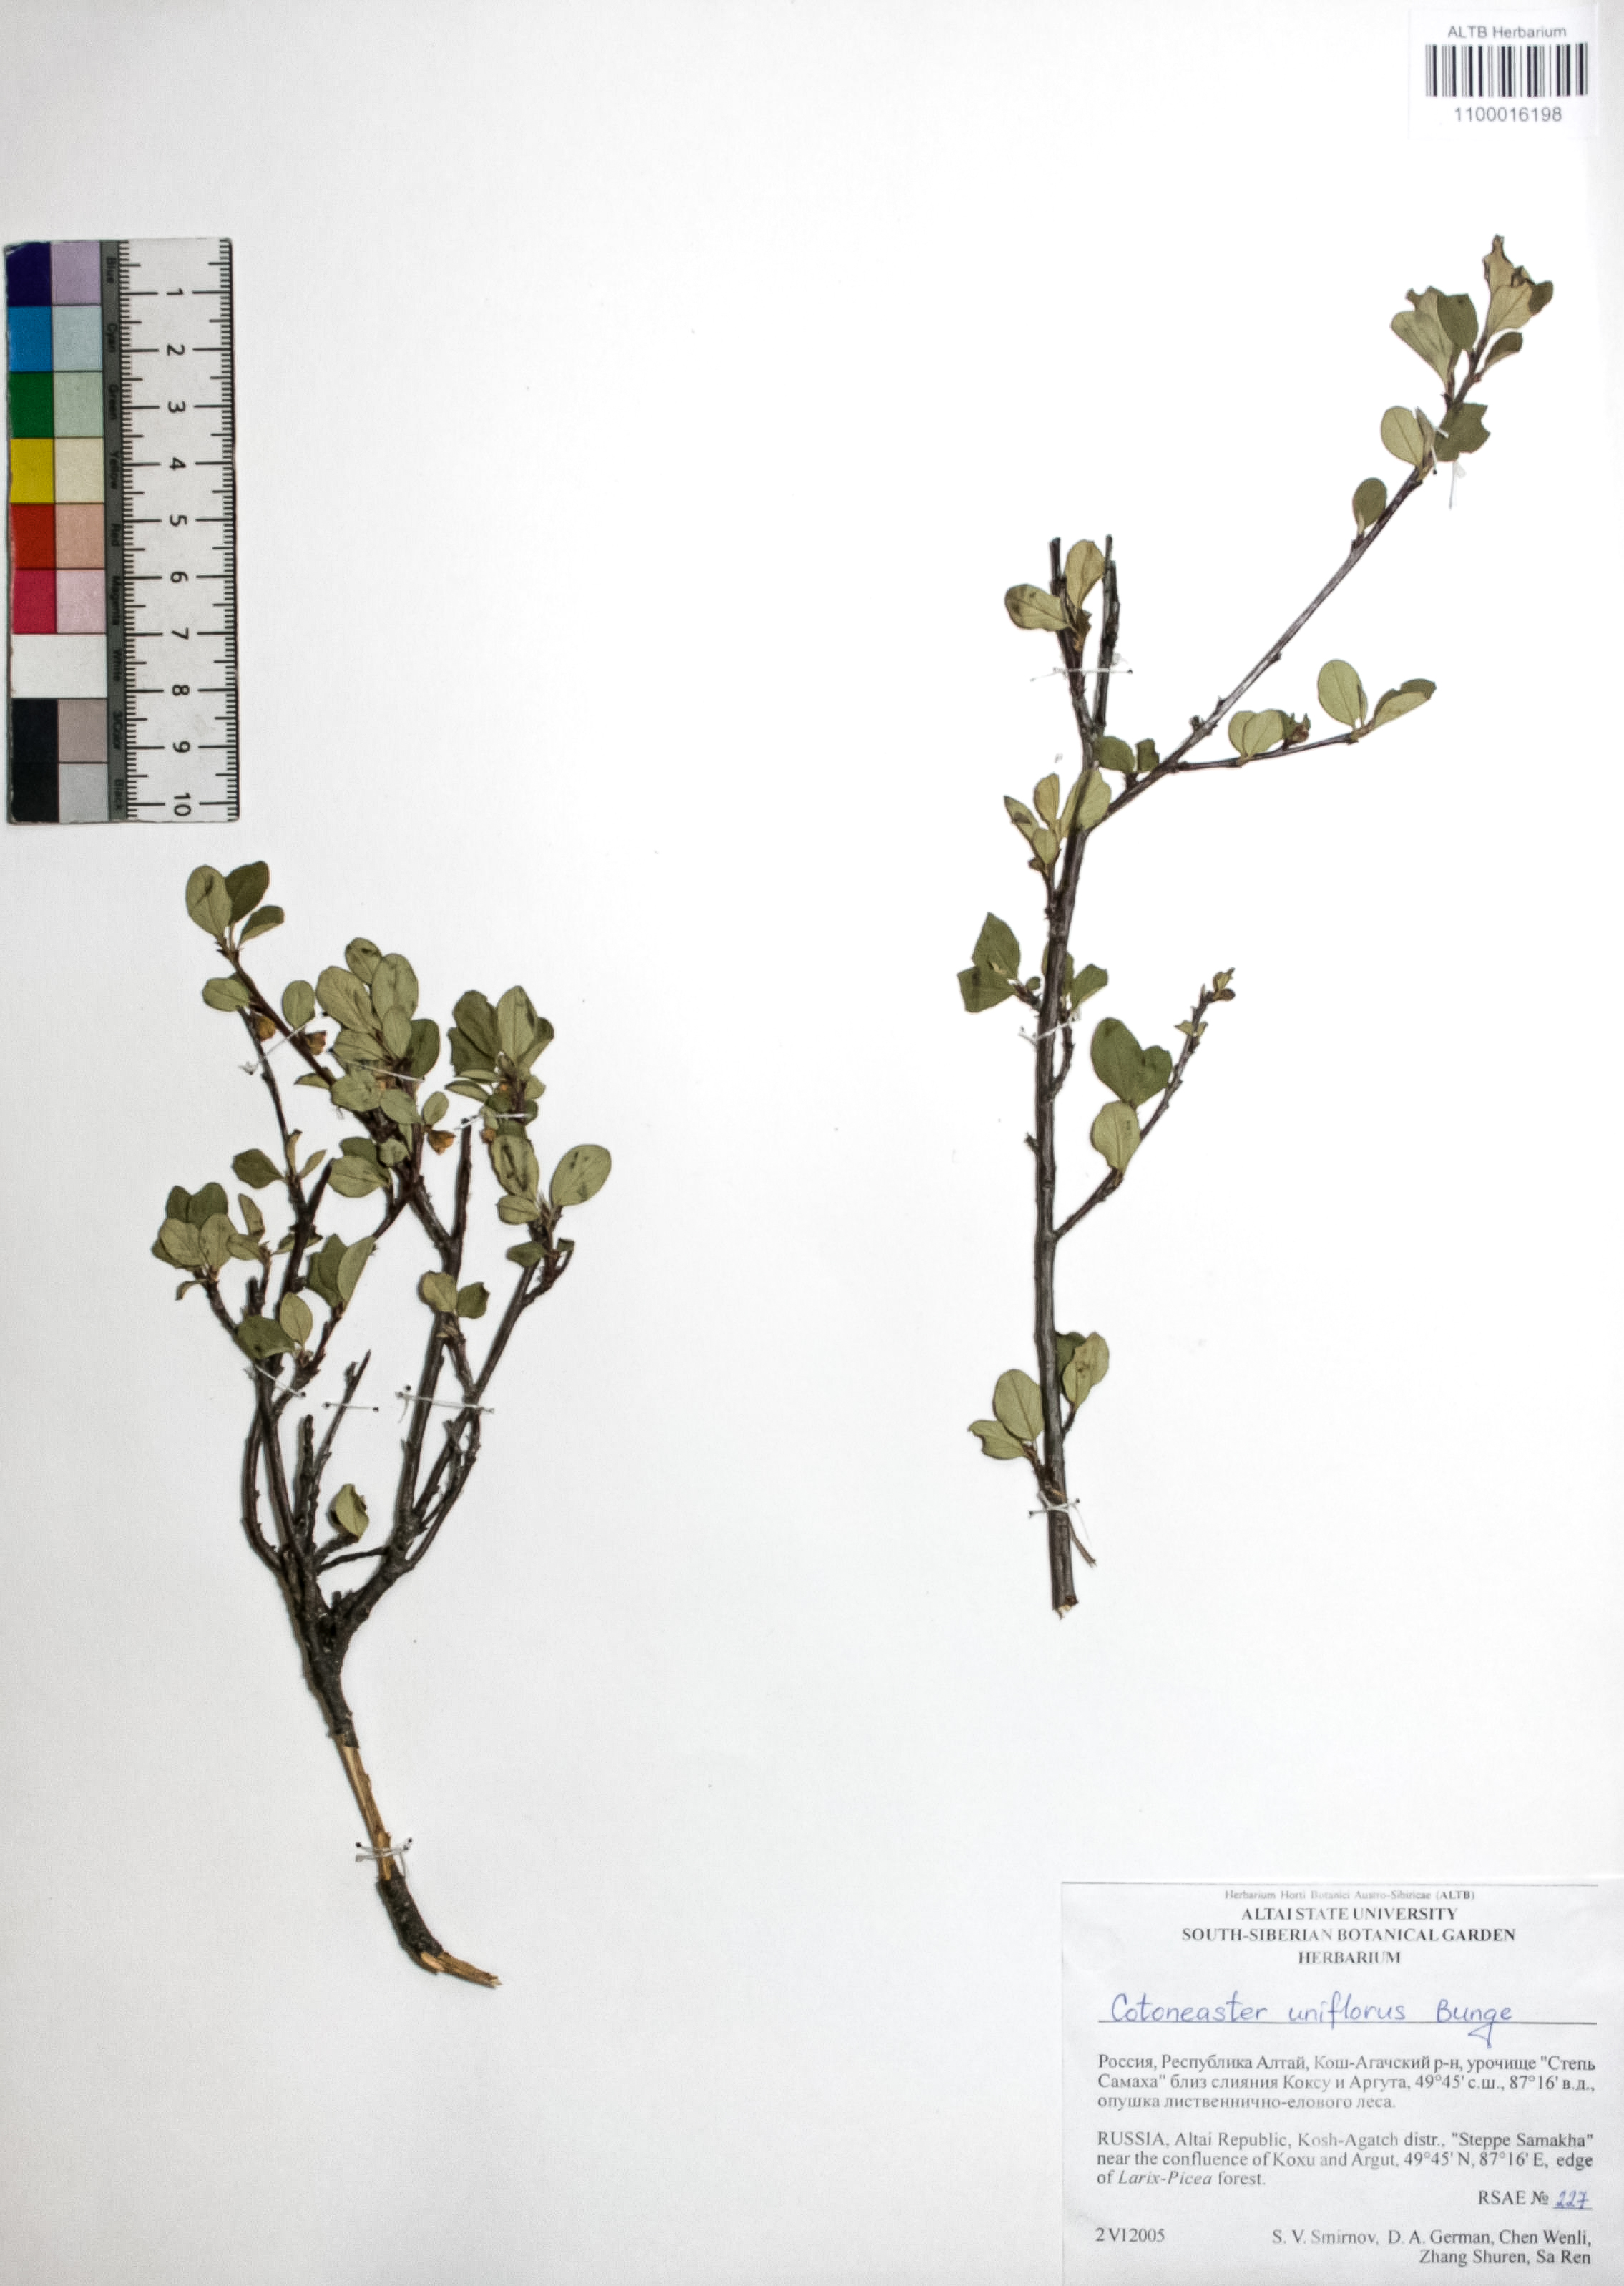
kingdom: Plantae
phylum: Tracheophyta
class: Magnoliopsida
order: Rosales
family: Rosaceae
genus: Cotoneaster
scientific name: Cotoneaster uniflorus
